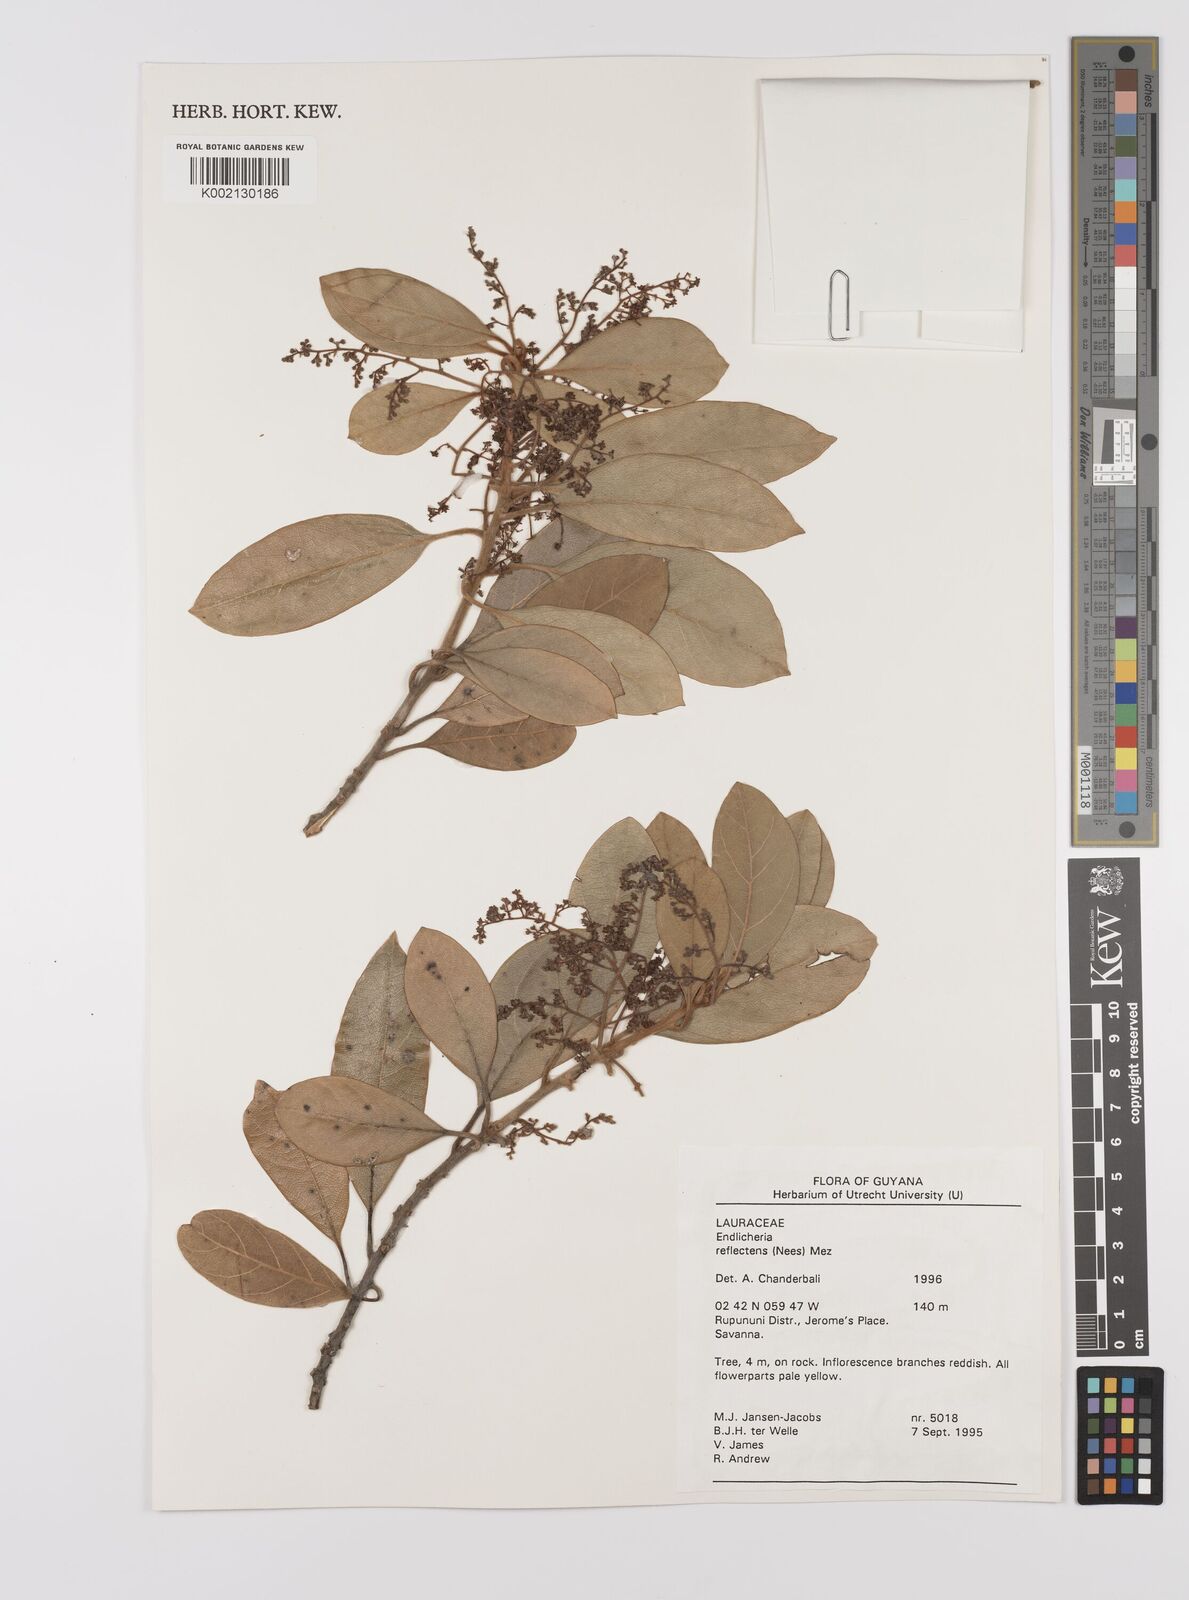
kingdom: Plantae
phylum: Tracheophyta
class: Magnoliopsida
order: Laurales
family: Lauraceae
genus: Endlicheria
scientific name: Endlicheria reflectens
